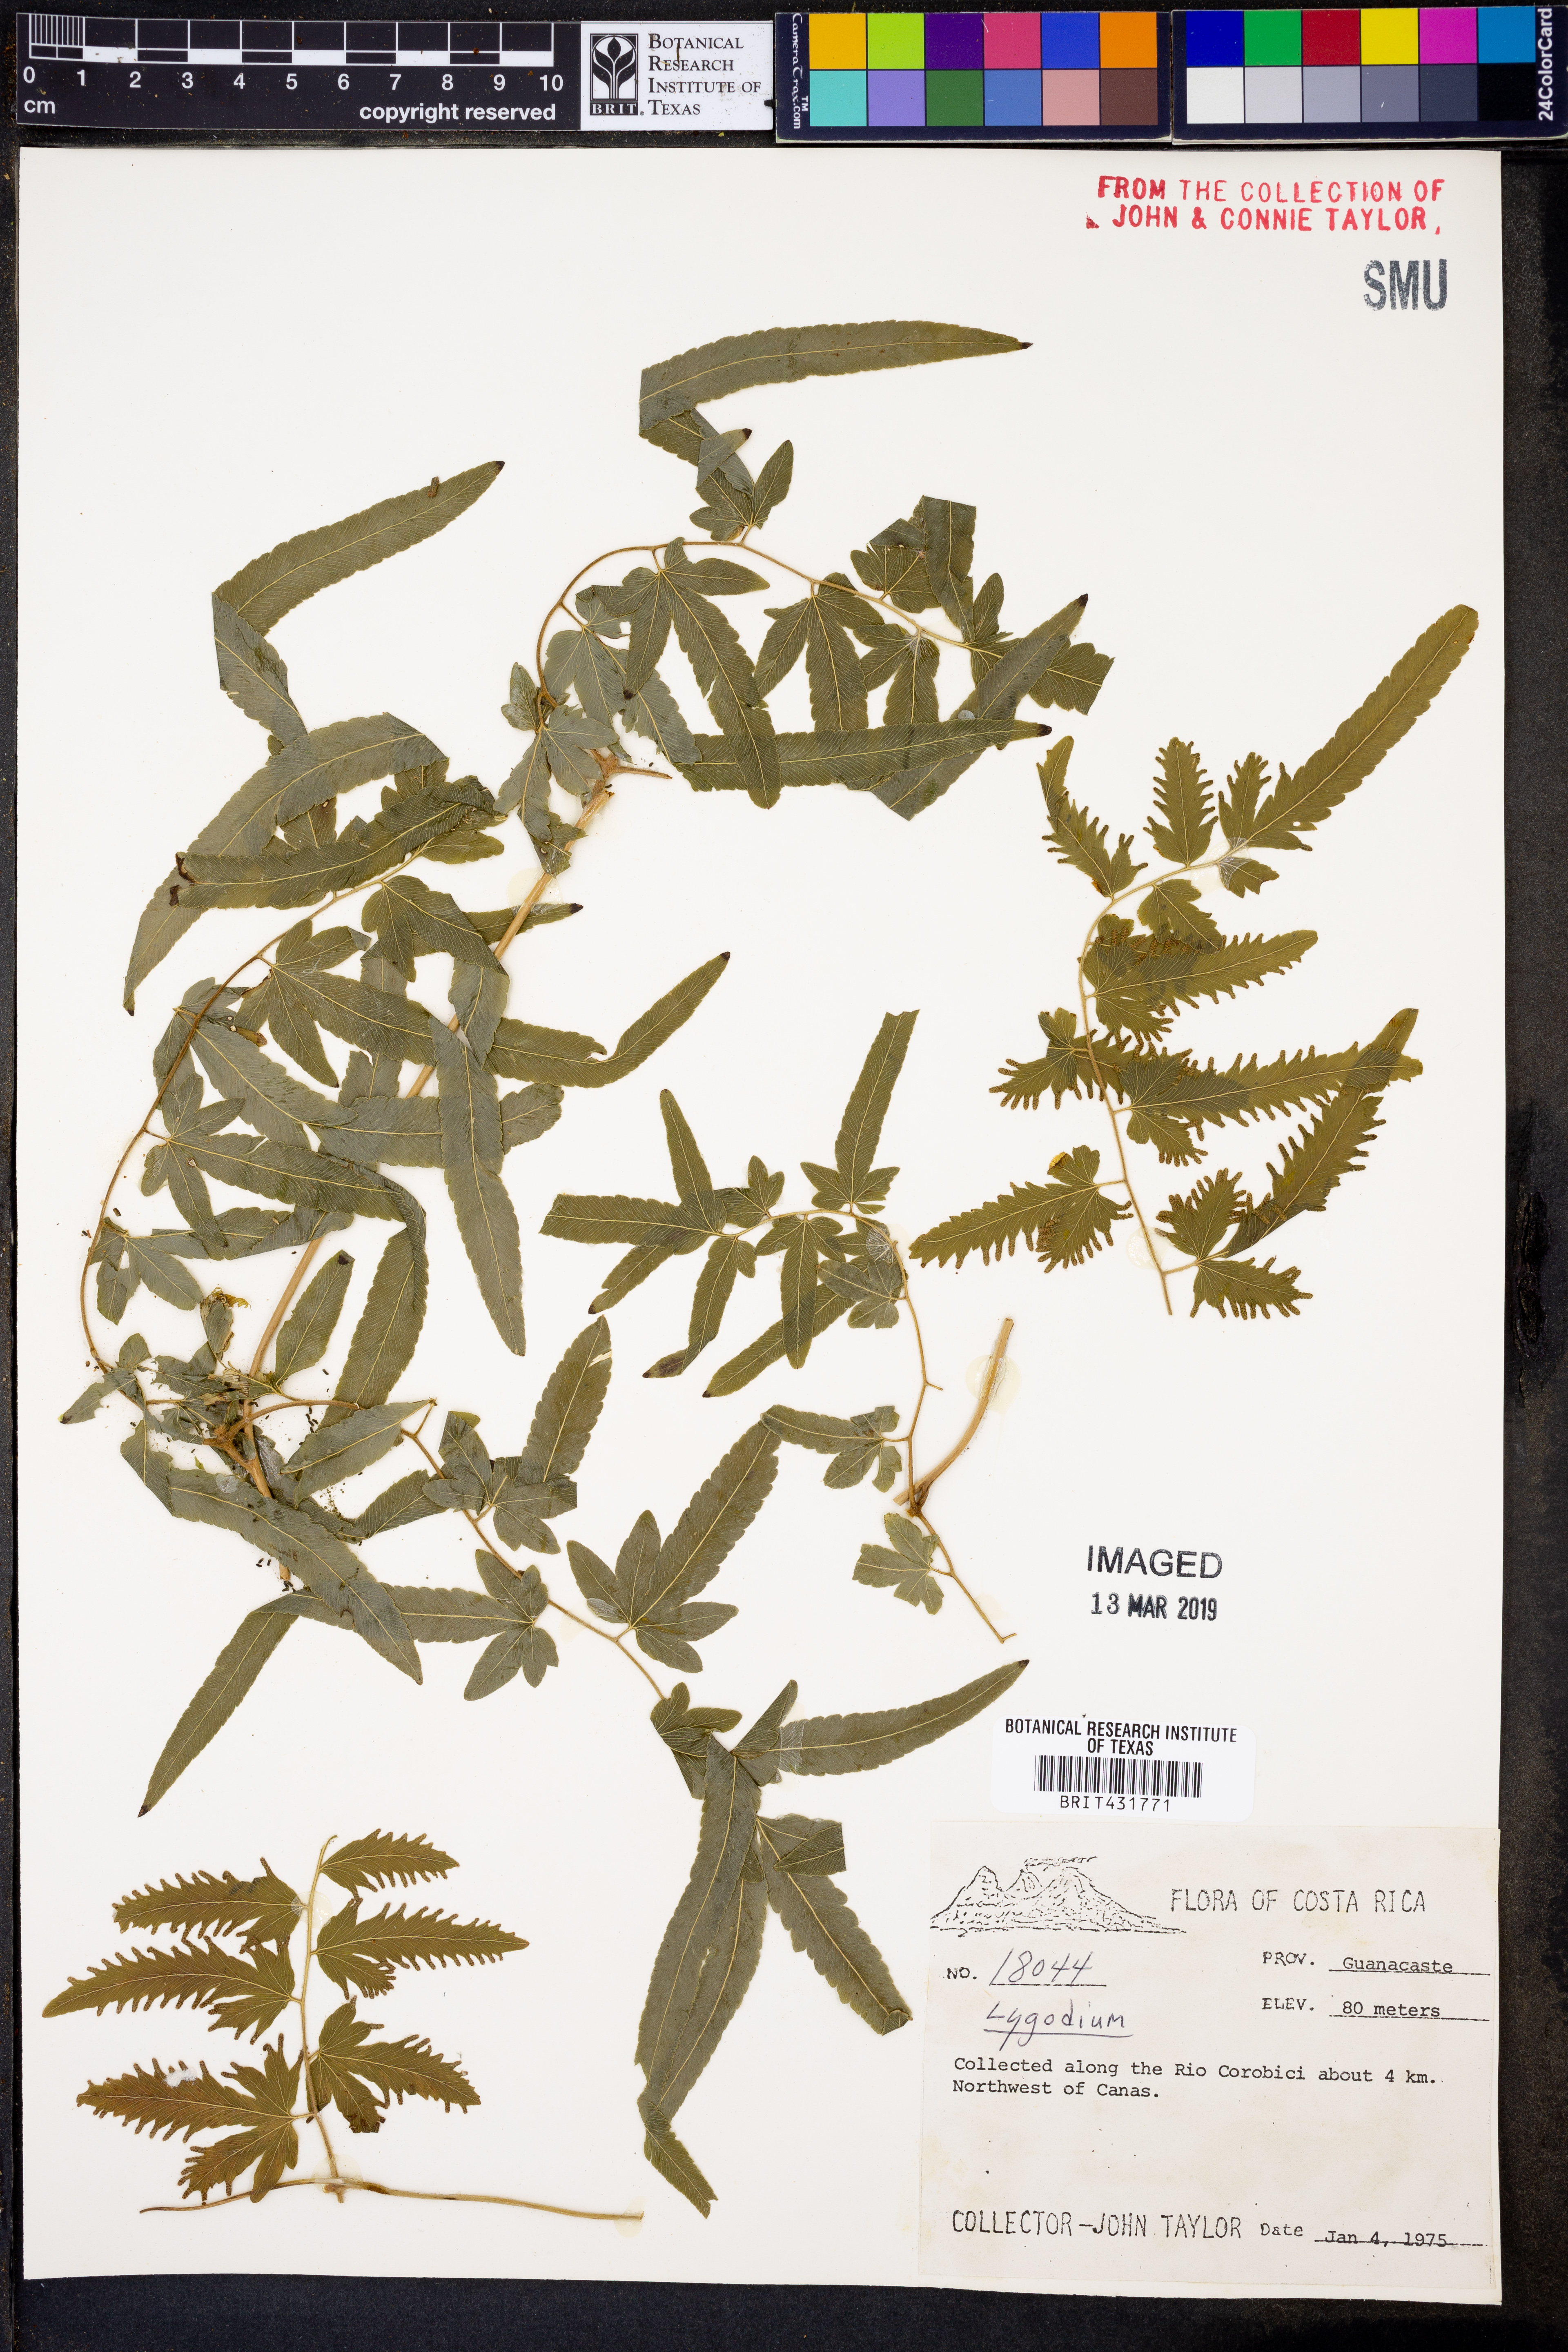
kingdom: Plantae
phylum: Tracheophyta
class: Polypodiopsida
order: Schizaeales
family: Lygodiaceae
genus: Lygodium
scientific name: Lygodium
